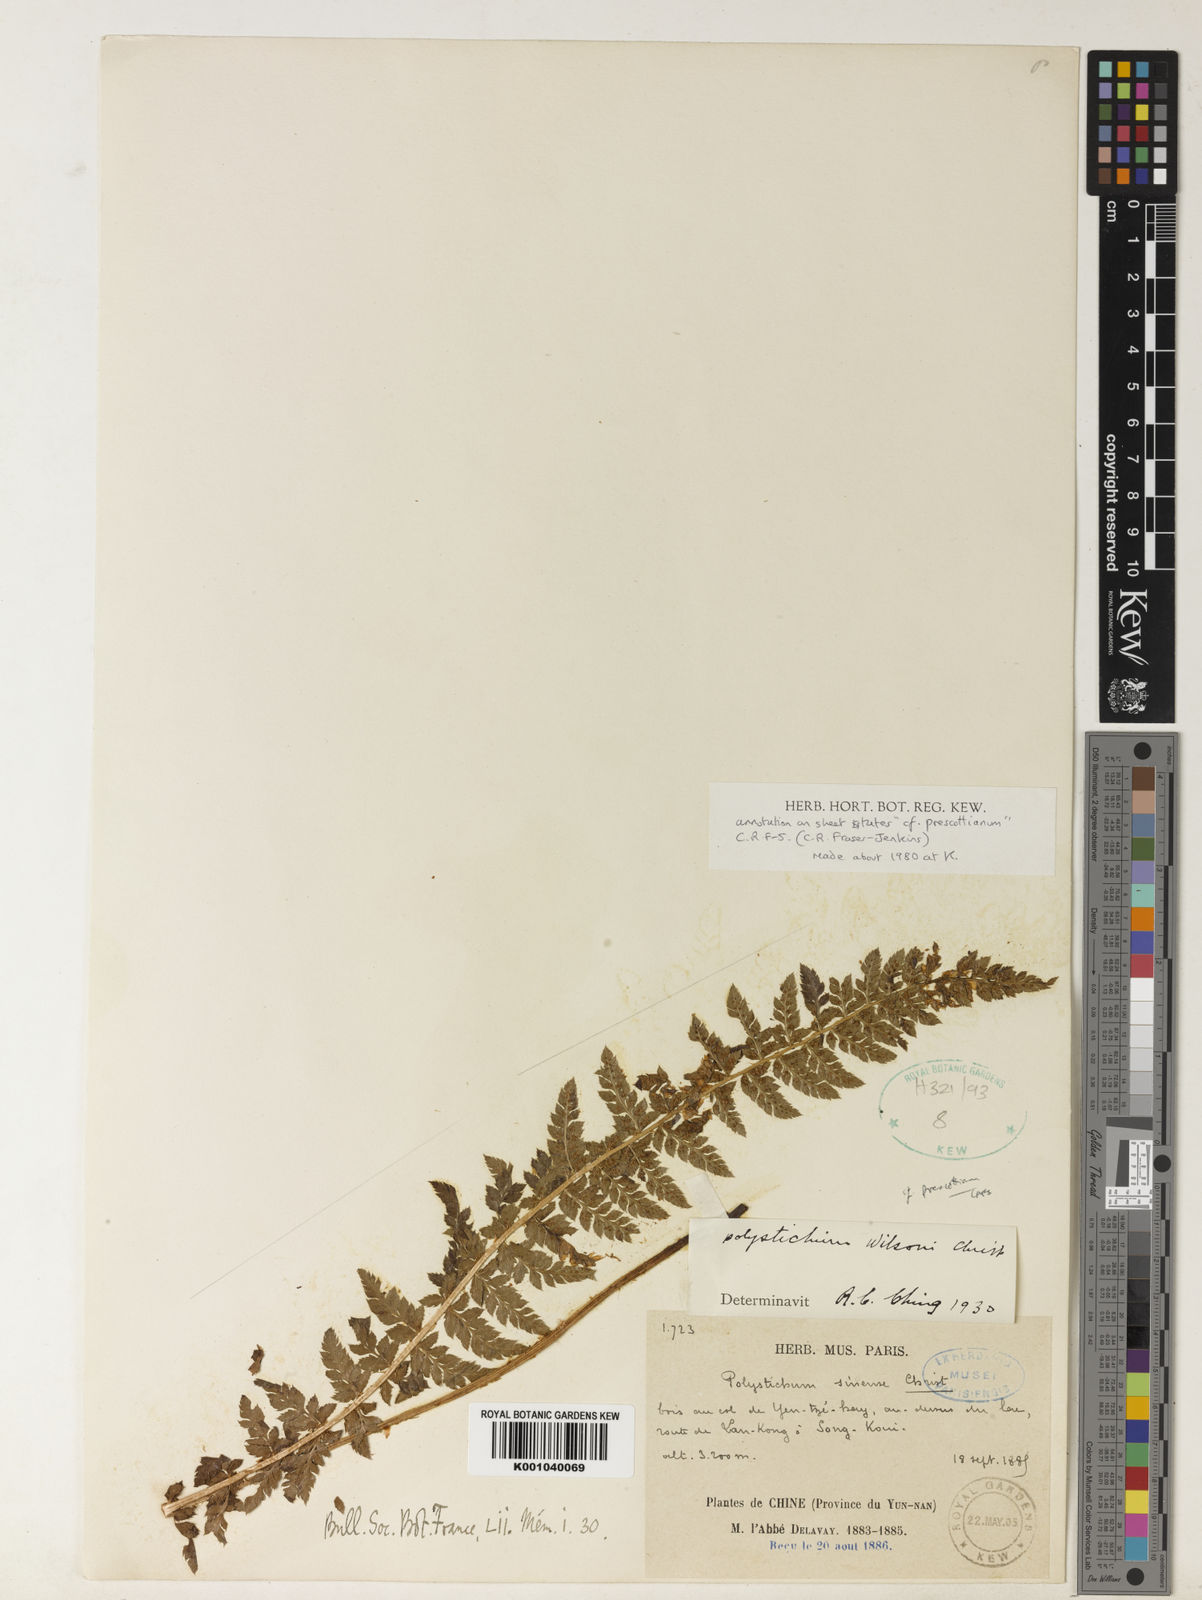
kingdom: Plantae
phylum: Tracheophyta
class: Polypodiopsida
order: Polypodiales
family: Dryopteridaceae
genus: Polystichum
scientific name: Polystichum sinense
